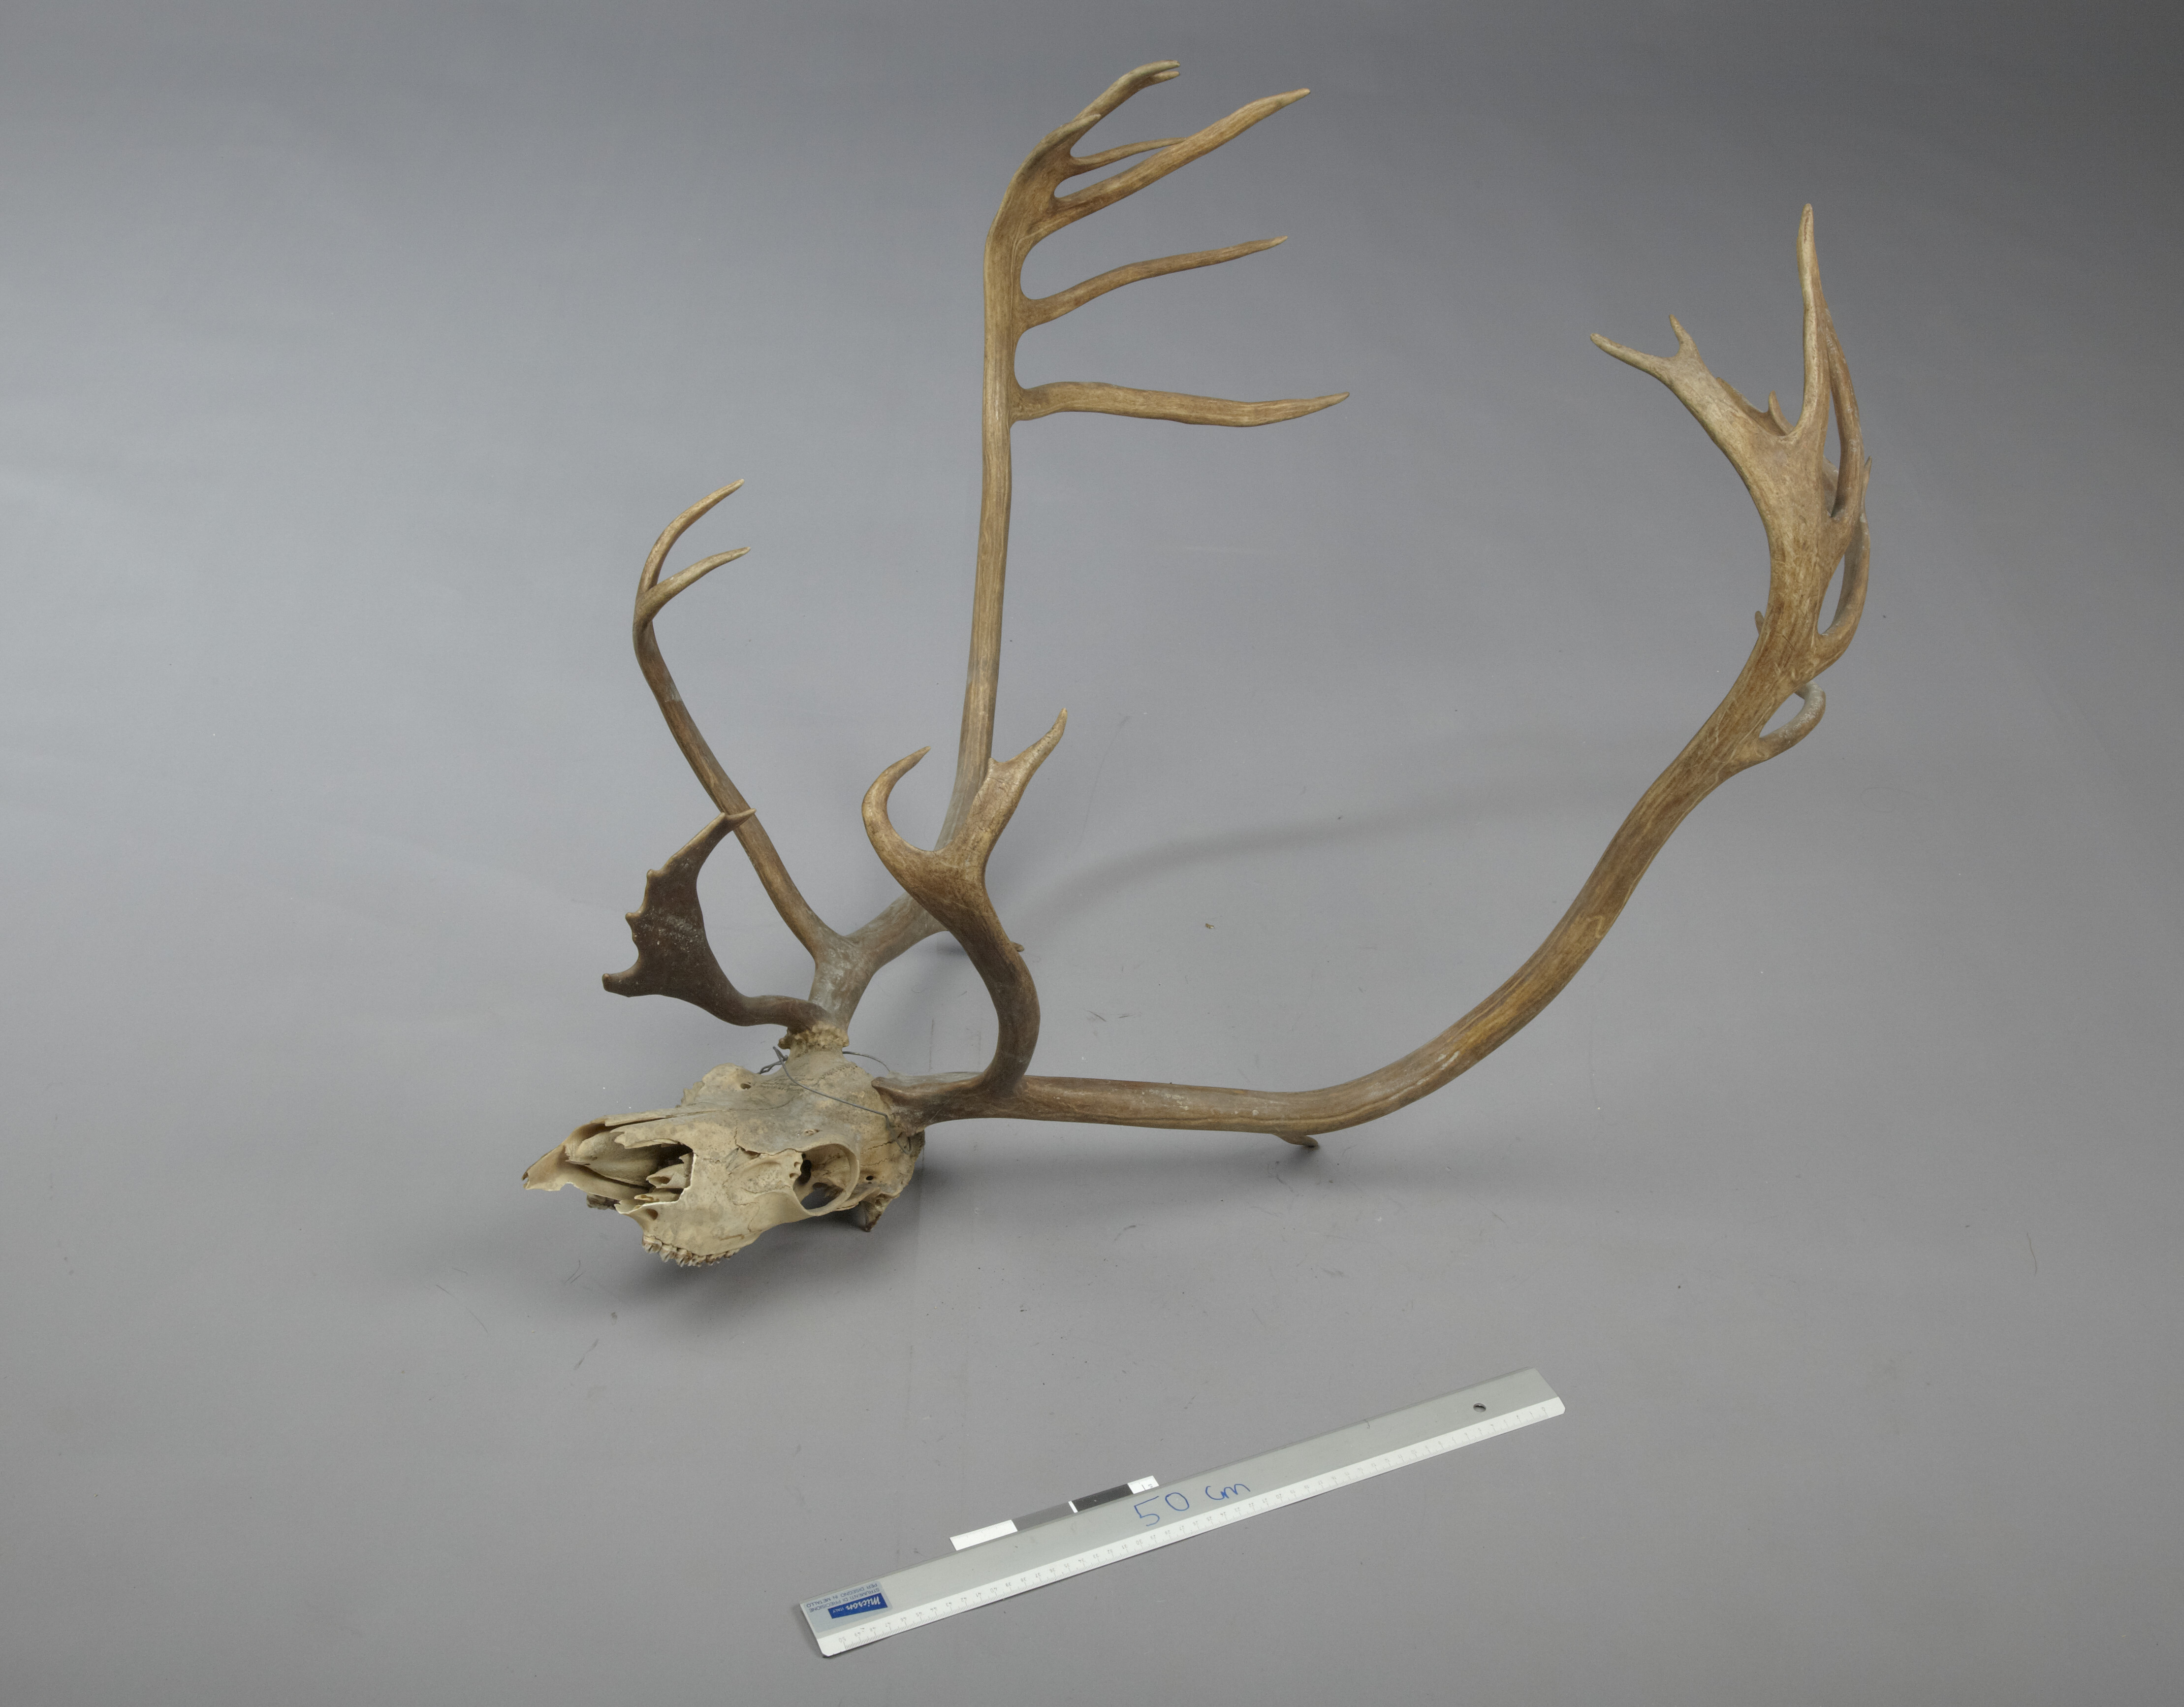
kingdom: Animalia
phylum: Chordata
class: Mammalia
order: Artiodactyla
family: Cervidae
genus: Rangifer
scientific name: Rangifer tarandus
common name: Reindeer
